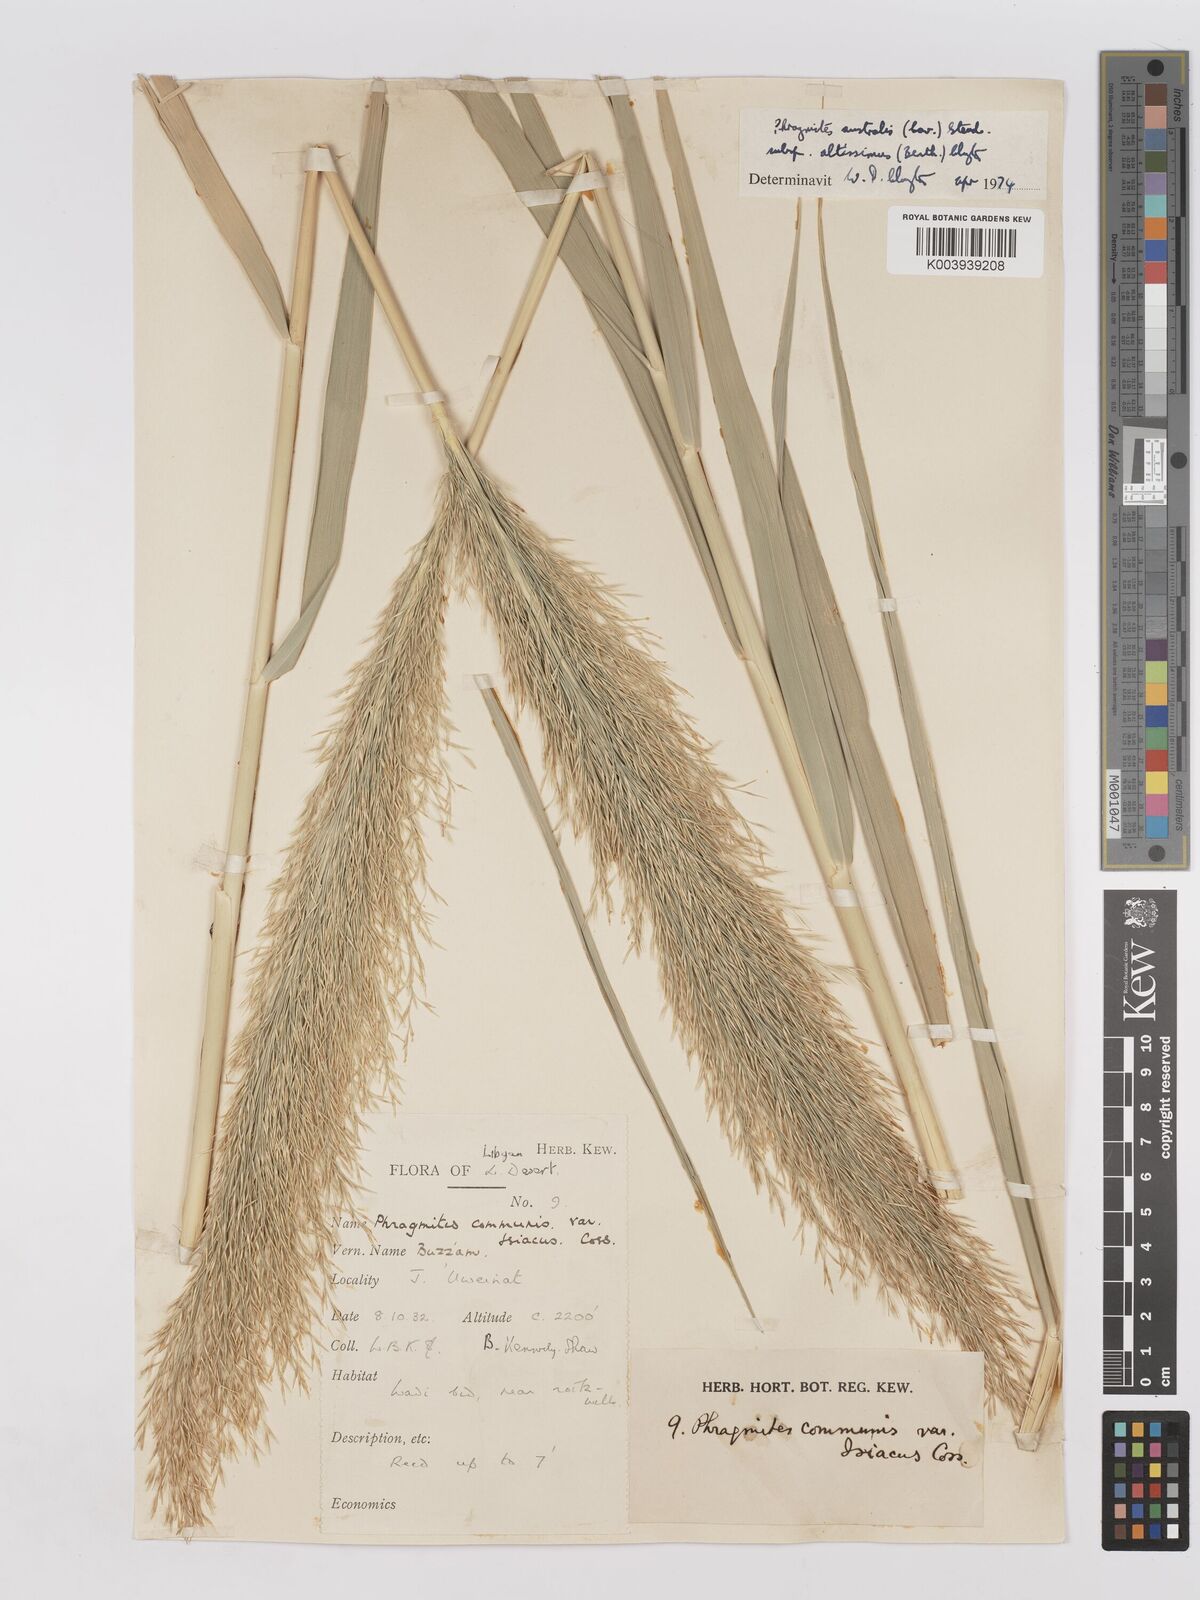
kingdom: Plantae
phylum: Tracheophyta
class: Liliopsida
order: Poales
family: Poaceae
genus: Phragmites
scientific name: Phragmites australis
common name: Common reed
